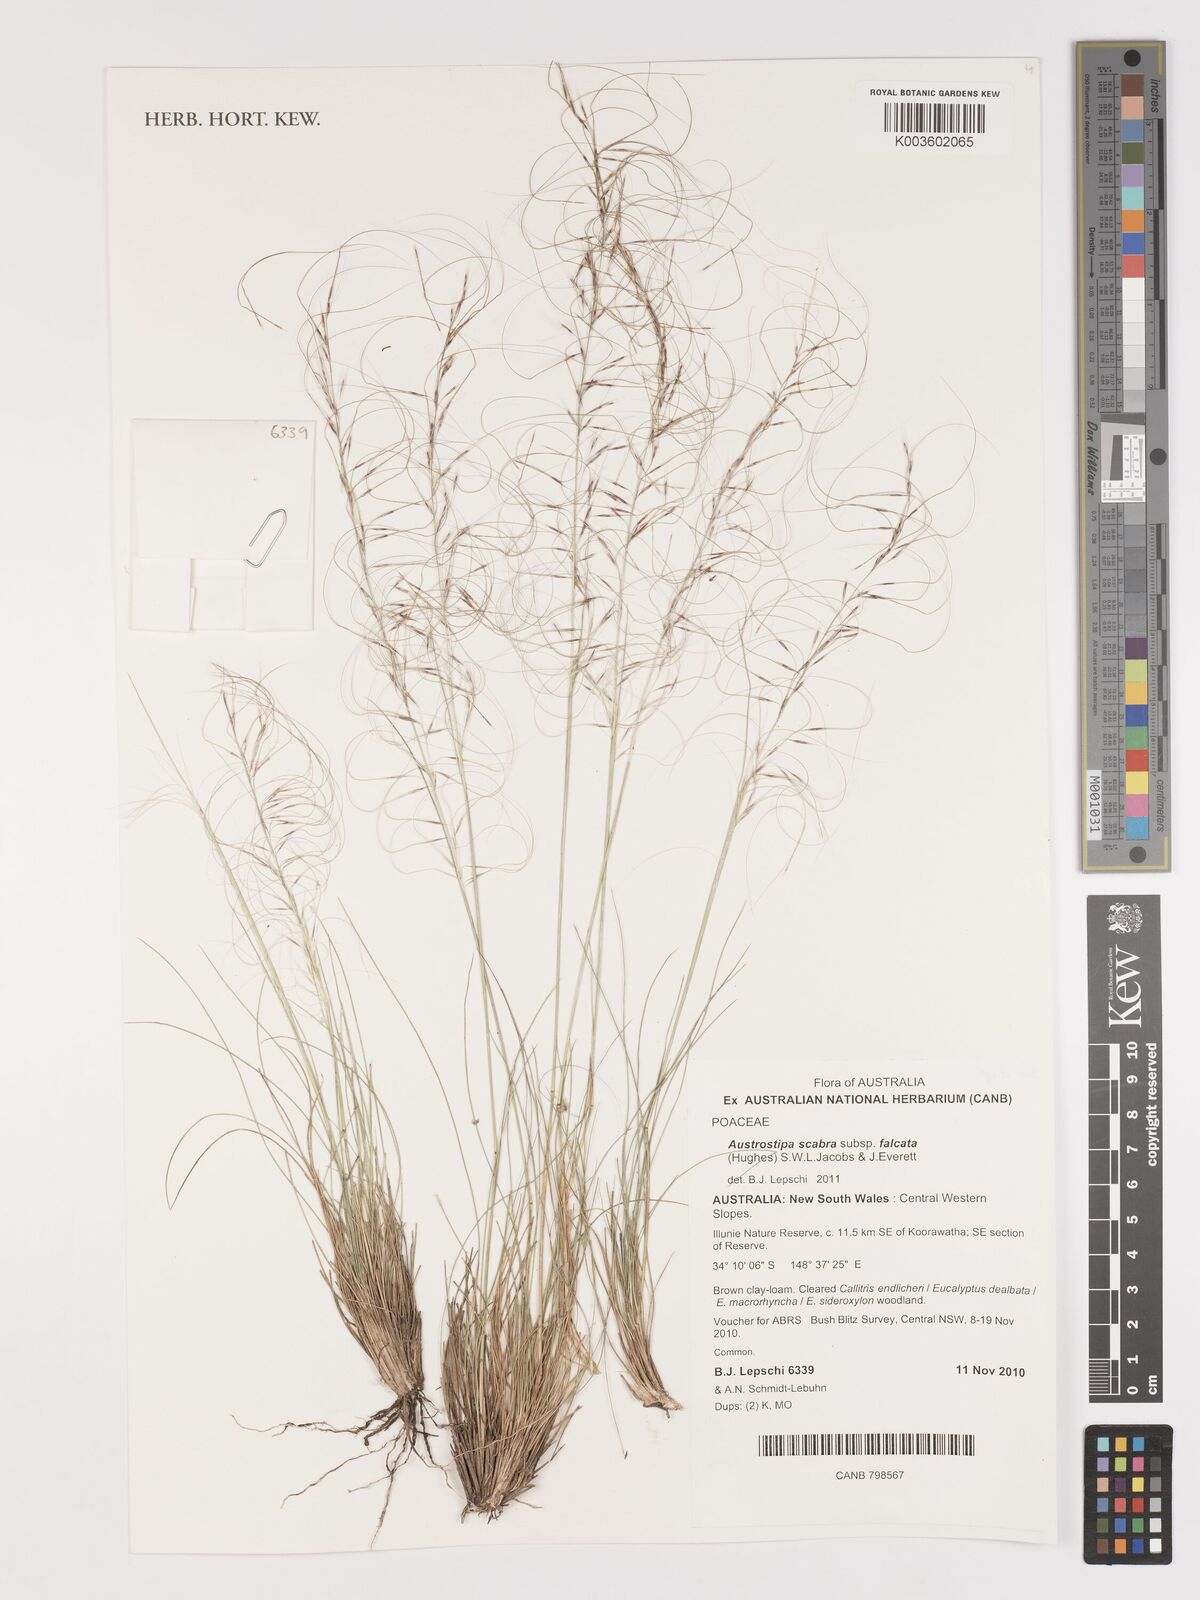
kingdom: Plantae
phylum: Tracheophyta
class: Liliopsida
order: Poales
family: Poaceae
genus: Austrostipa
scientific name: Austrostipa scabra
